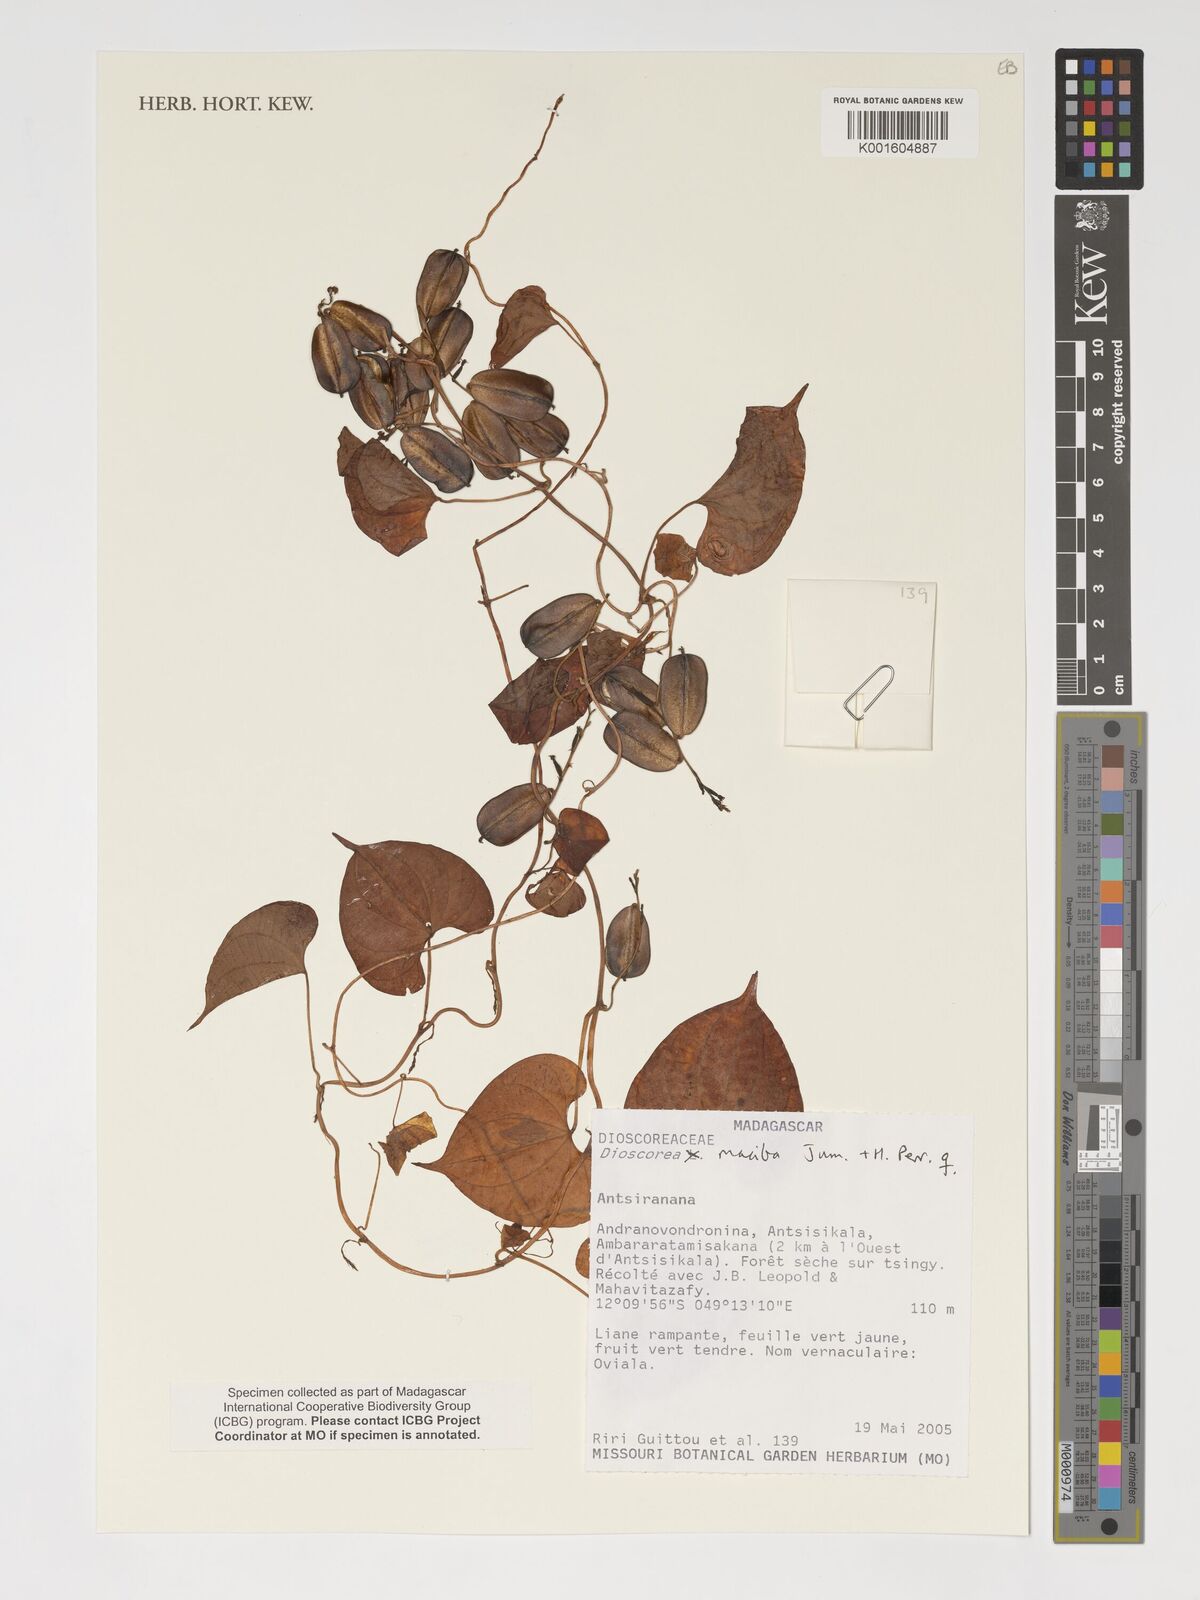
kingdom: Plantae
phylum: Tracheophyta
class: Liliopsida
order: Dioscoreales
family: Dioscoreaceae
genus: Dioscorea
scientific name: Dioscorea maciba
